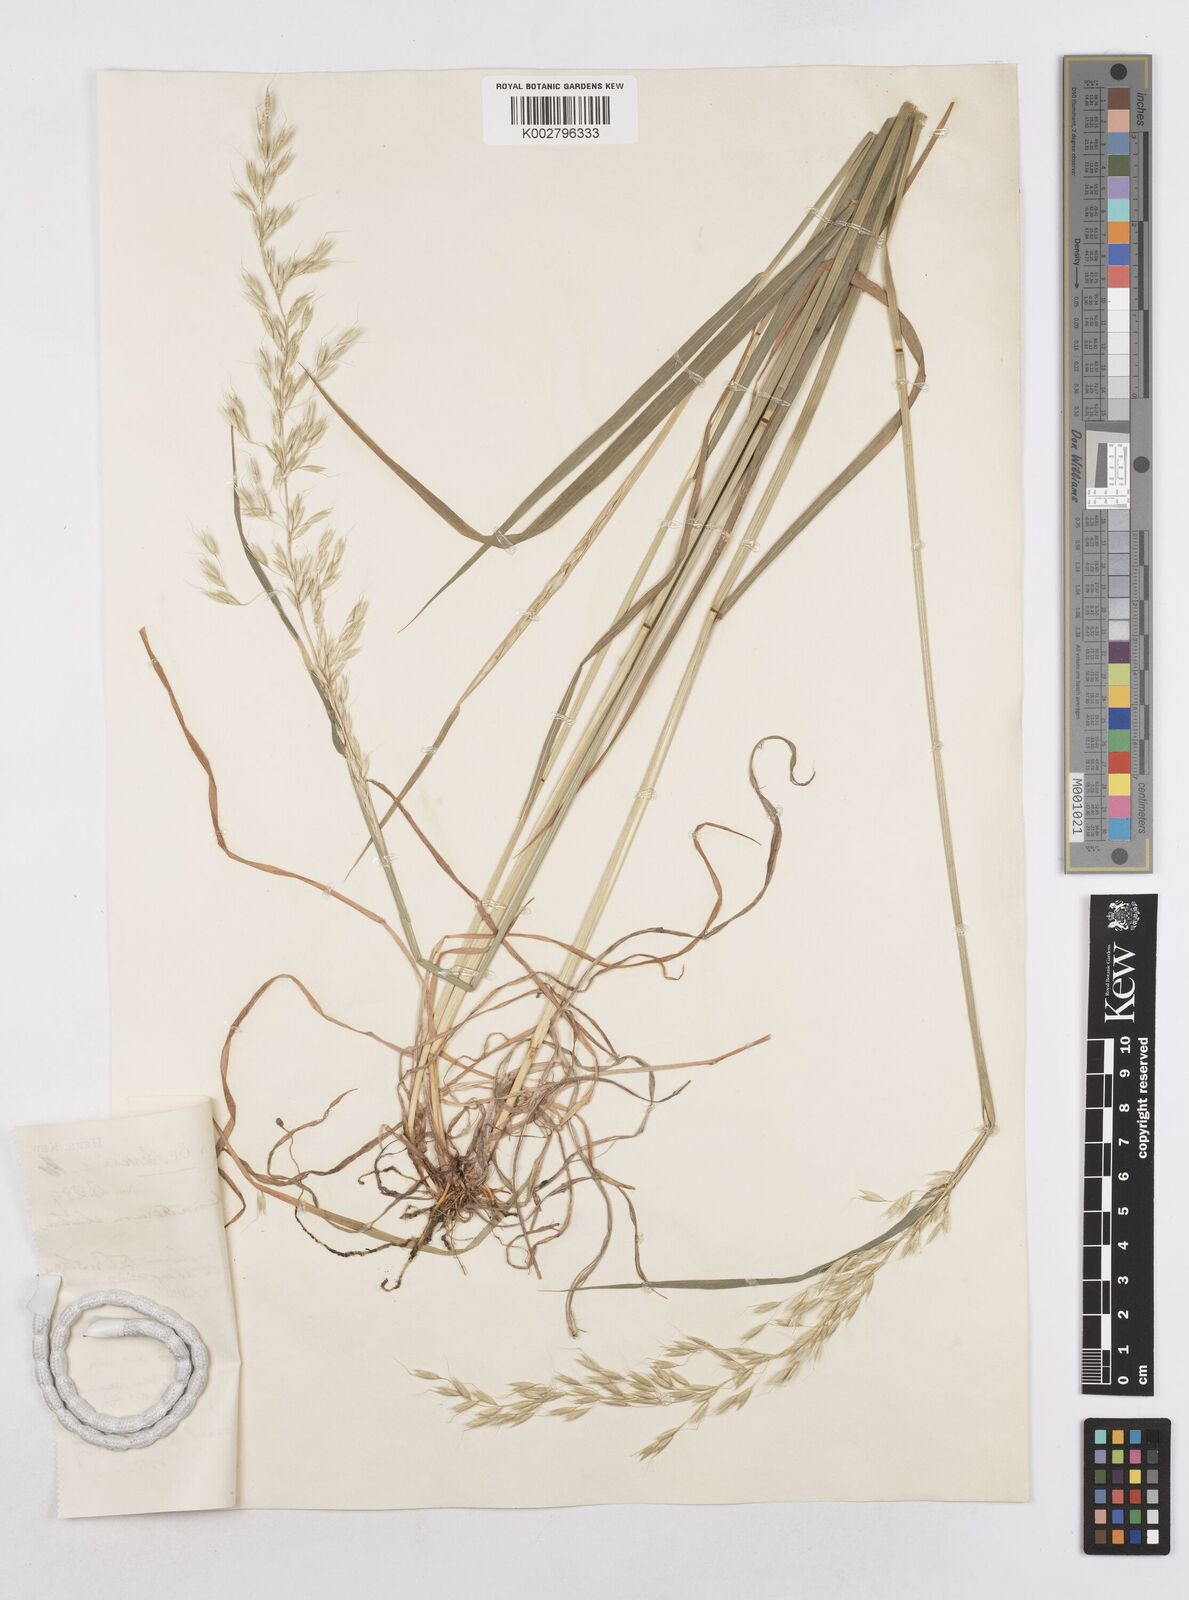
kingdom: Plantae
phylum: Tracheophyta
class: Liliopsida
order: Poales
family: Poaceae
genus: Arrhenatherum
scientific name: Arrhenatherum elatius
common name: Tall oatgrass
